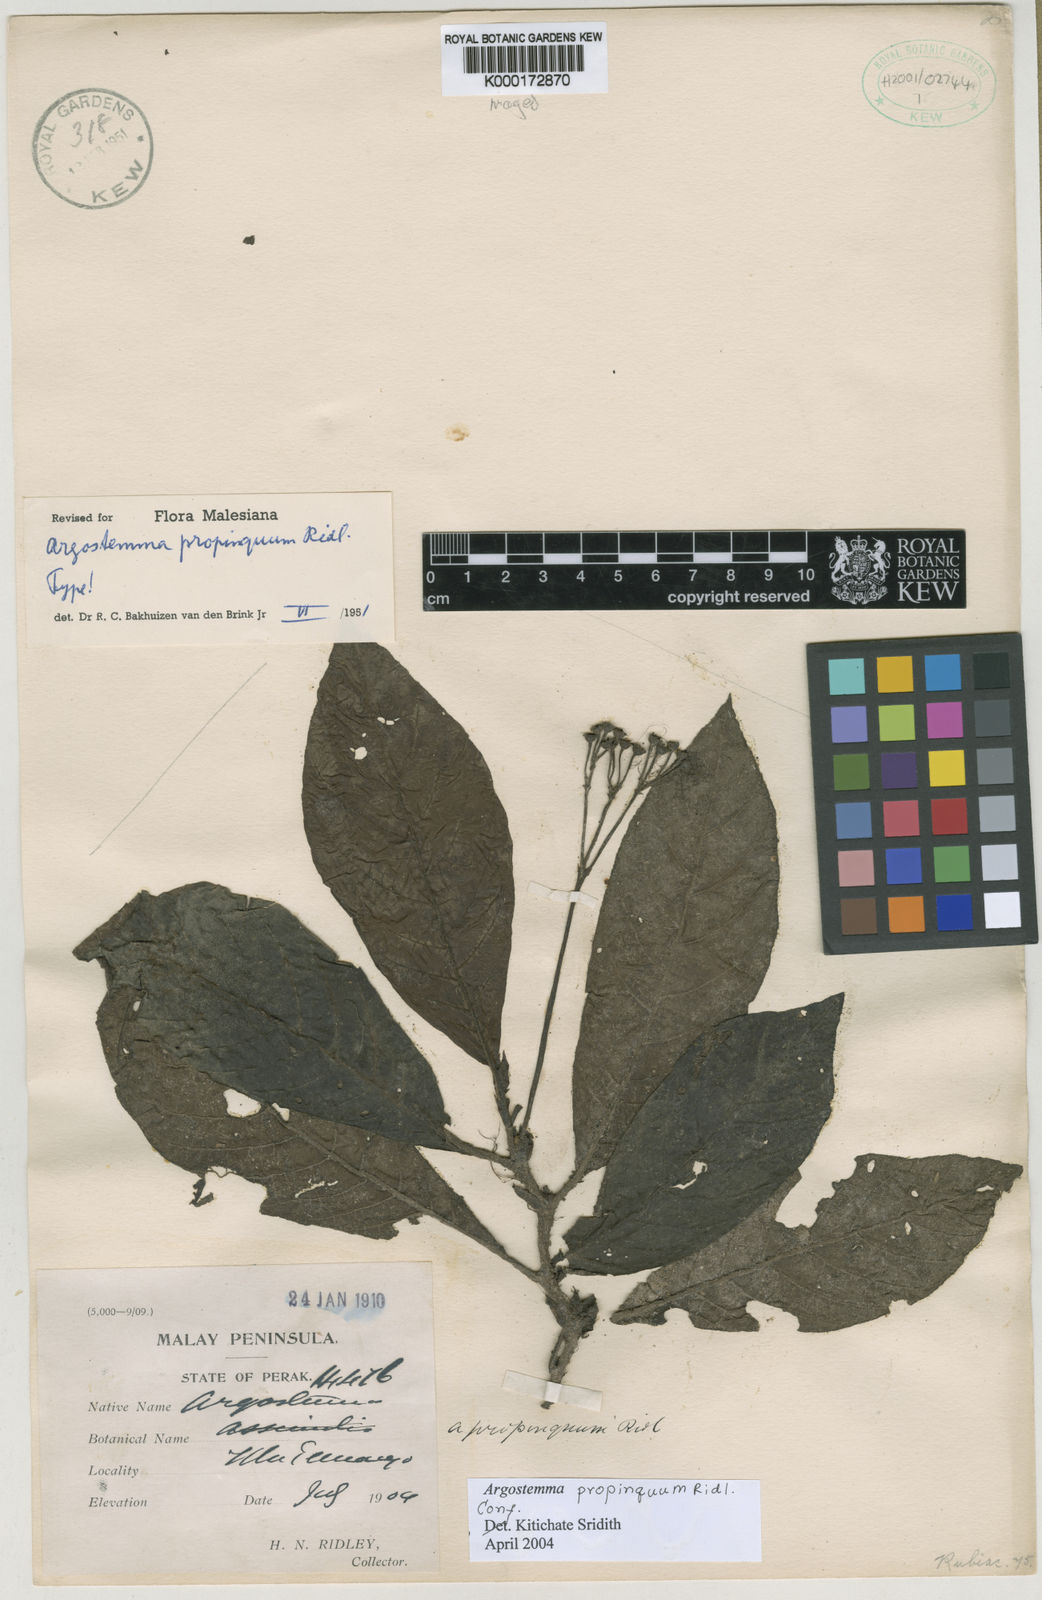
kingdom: Plantae
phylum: Tracheophyta
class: Magnoliopsida
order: Gentianales
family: Rubiaceae
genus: Argostemma
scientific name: Argostemma propinquum
